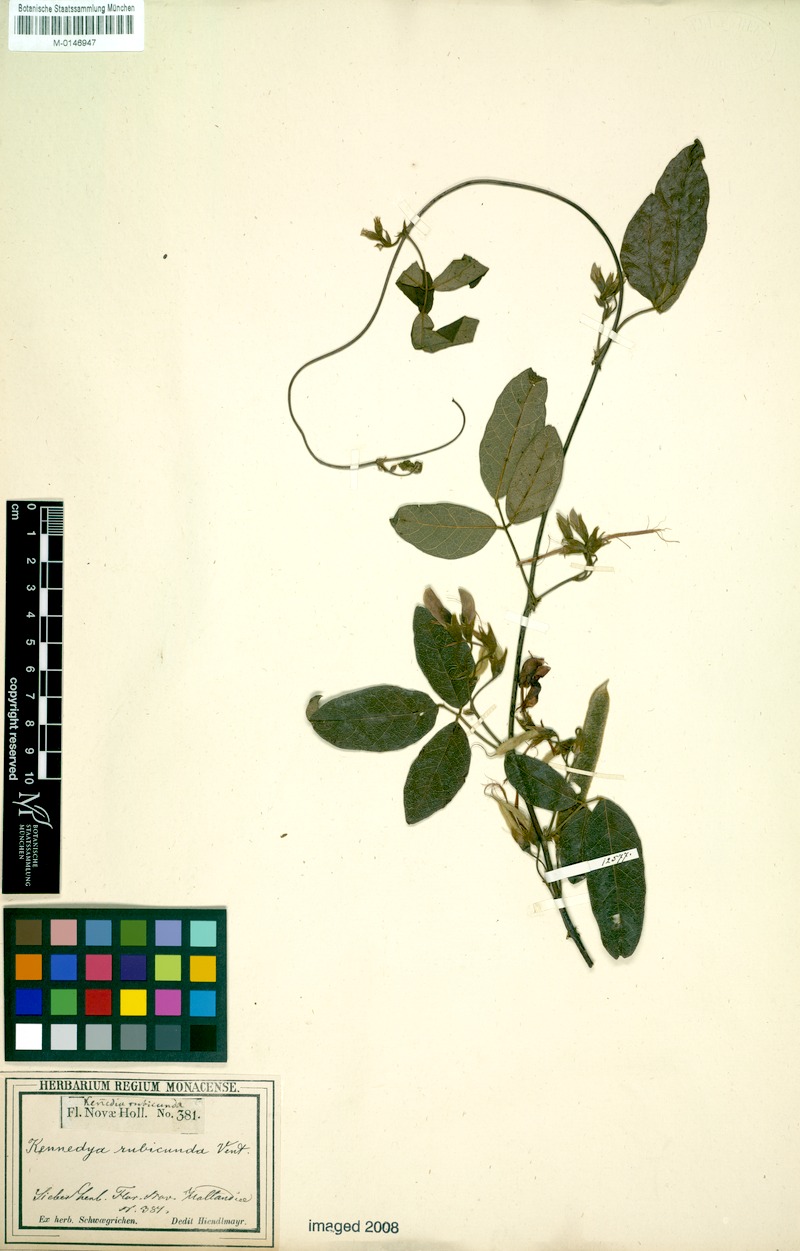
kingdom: Plantae
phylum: Tracheophyta
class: Magnoliopsida
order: Fabales
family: Fabaceae
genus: Kennedia
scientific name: Kennedia rubicunda
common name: Red kennedy-pea
